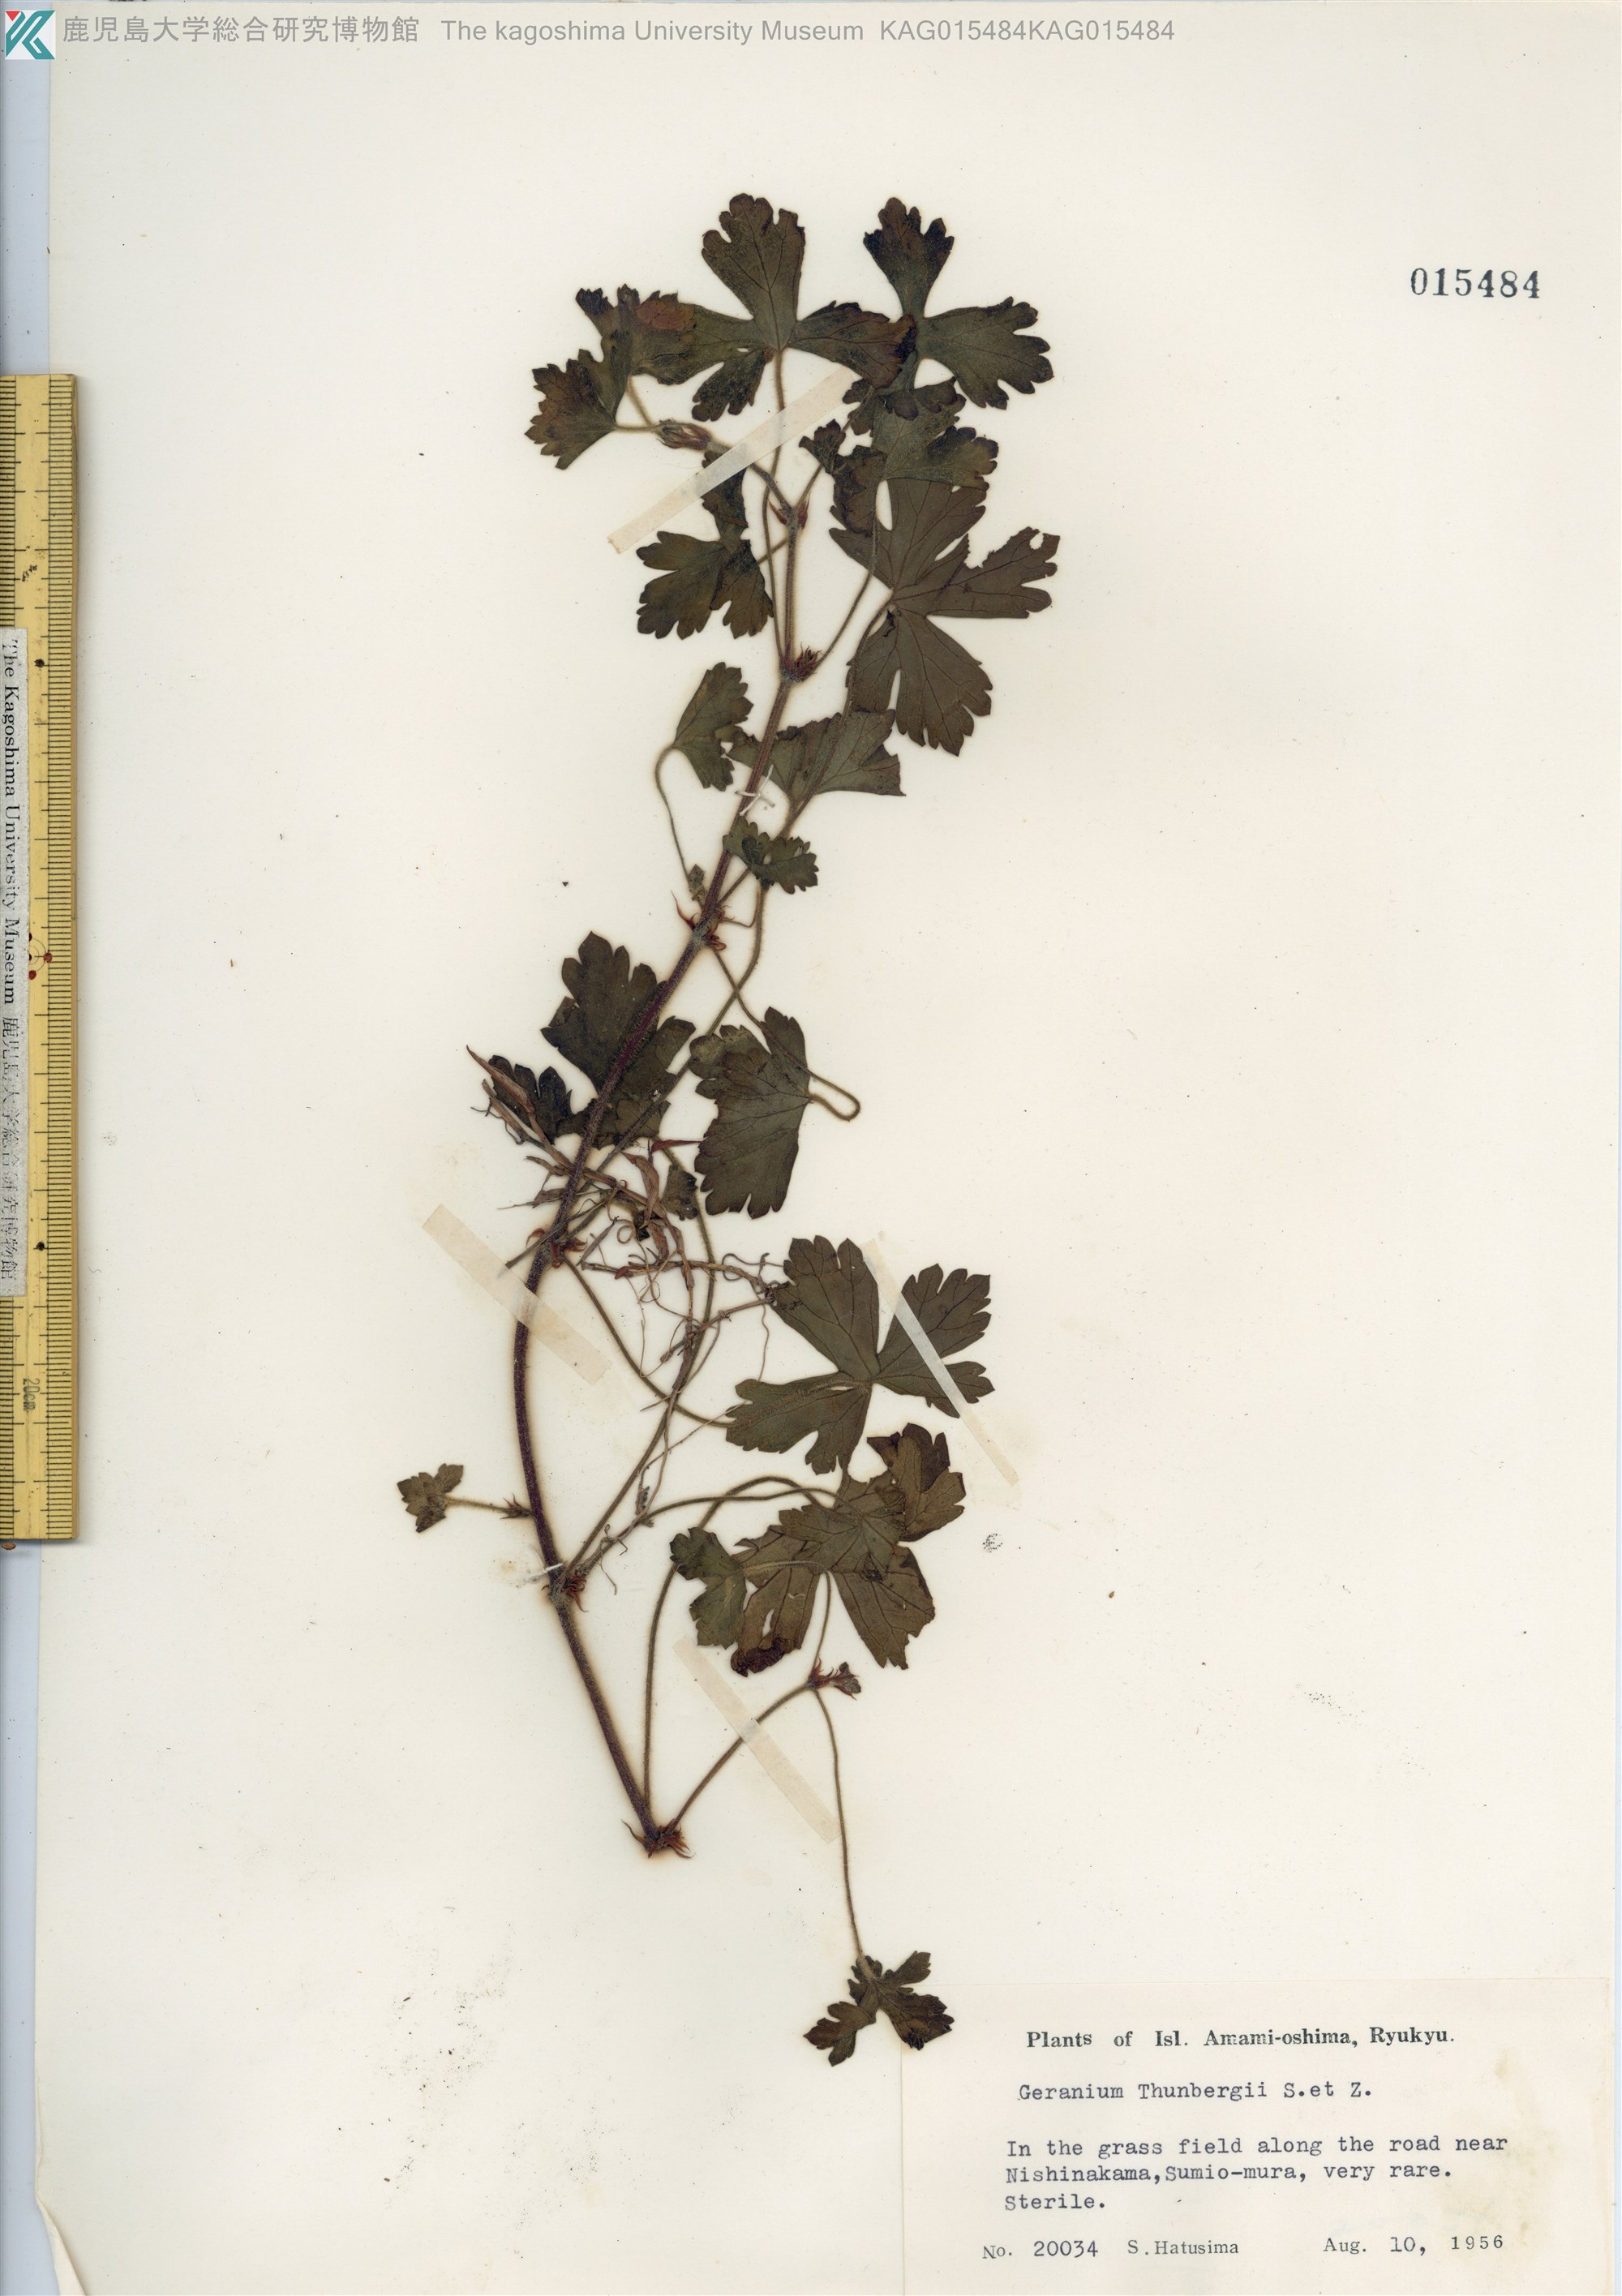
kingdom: Plantae
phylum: Tracheophyta
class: Magnoliopsida
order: Geraniales
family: Geraniaceae
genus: Geranium
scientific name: Geranium thunbergii
